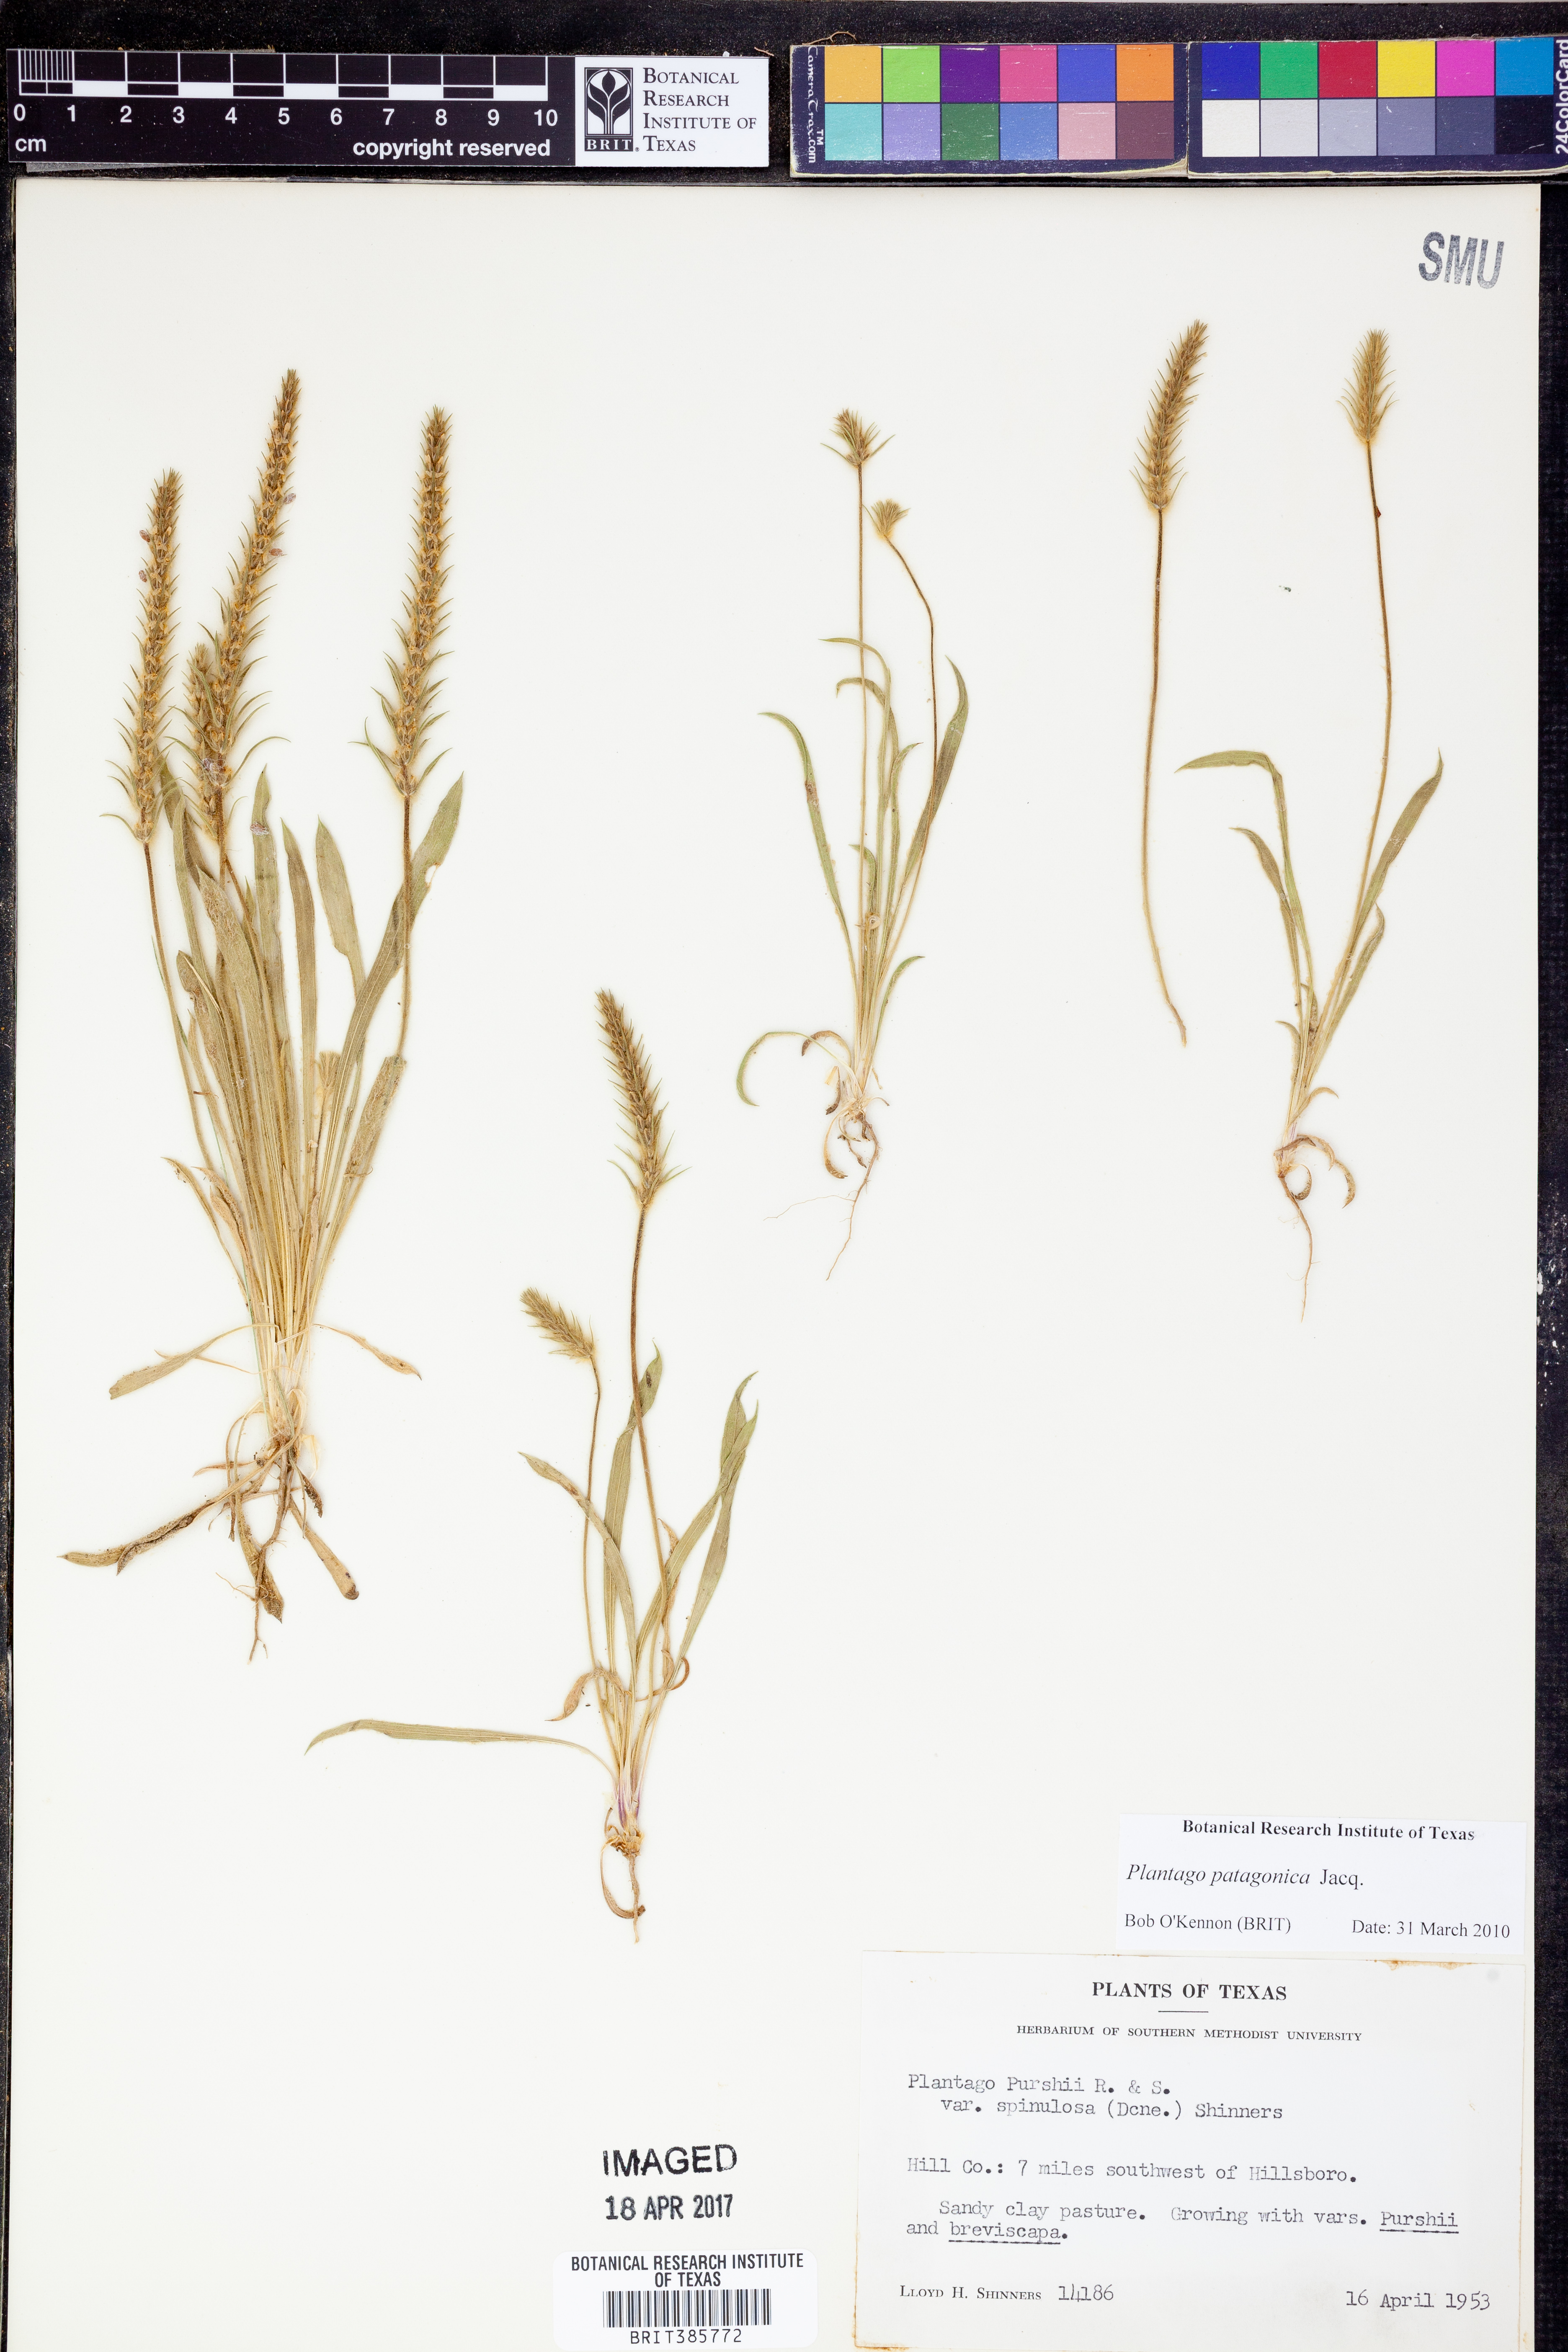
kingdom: Plantae
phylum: Tracheophyta
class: Magnoliopsida
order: Lamiales
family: Plantaginaceae
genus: Plantago
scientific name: Plantago patagonica
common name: Patagonia indian-wheat
